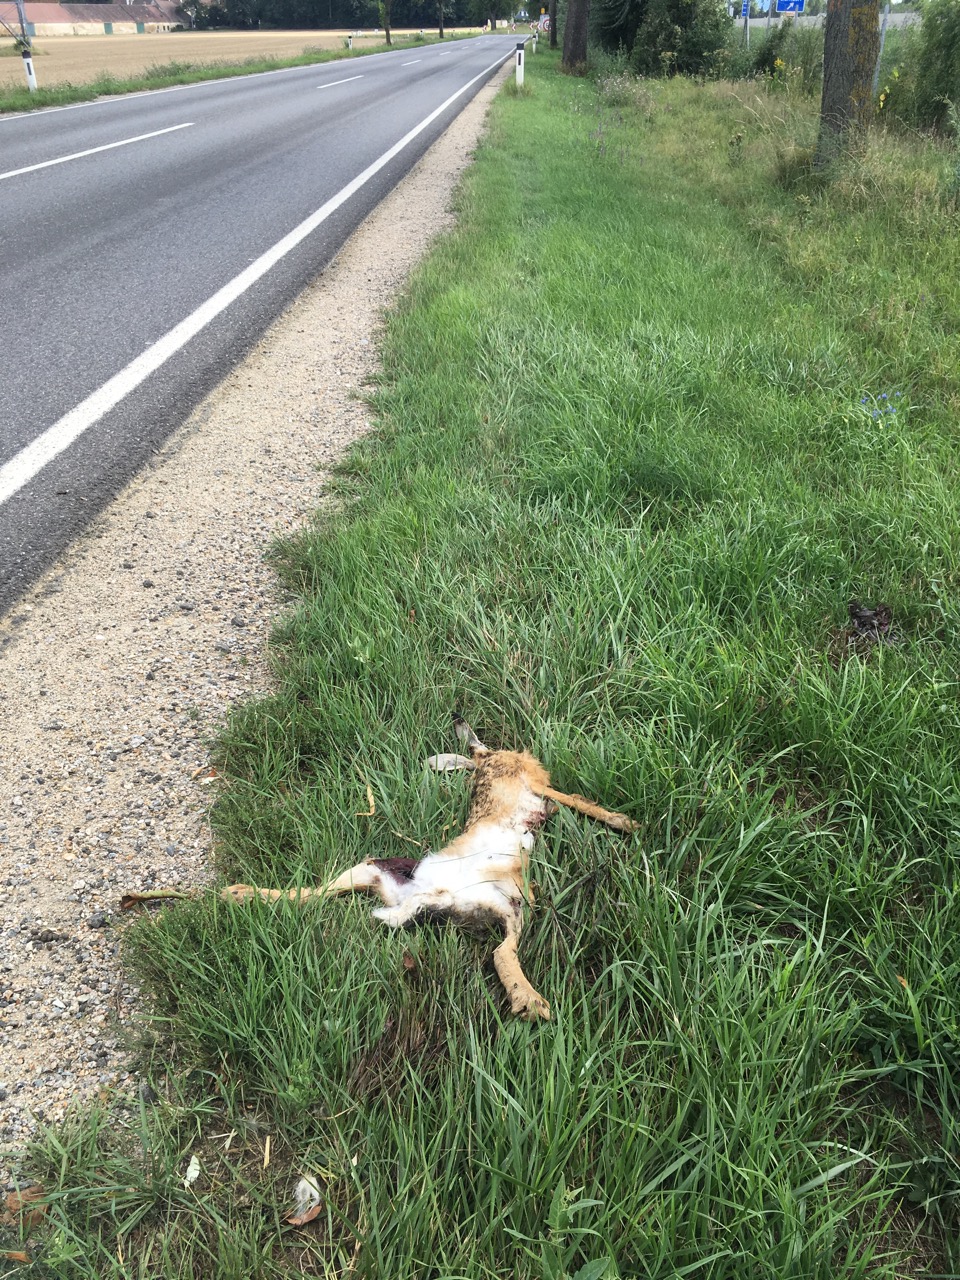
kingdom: Animalia
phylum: Chordata
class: Mammalia
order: Lagomorpha
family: Leporidae
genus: Lepus
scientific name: Lepus europaeus
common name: European hare
